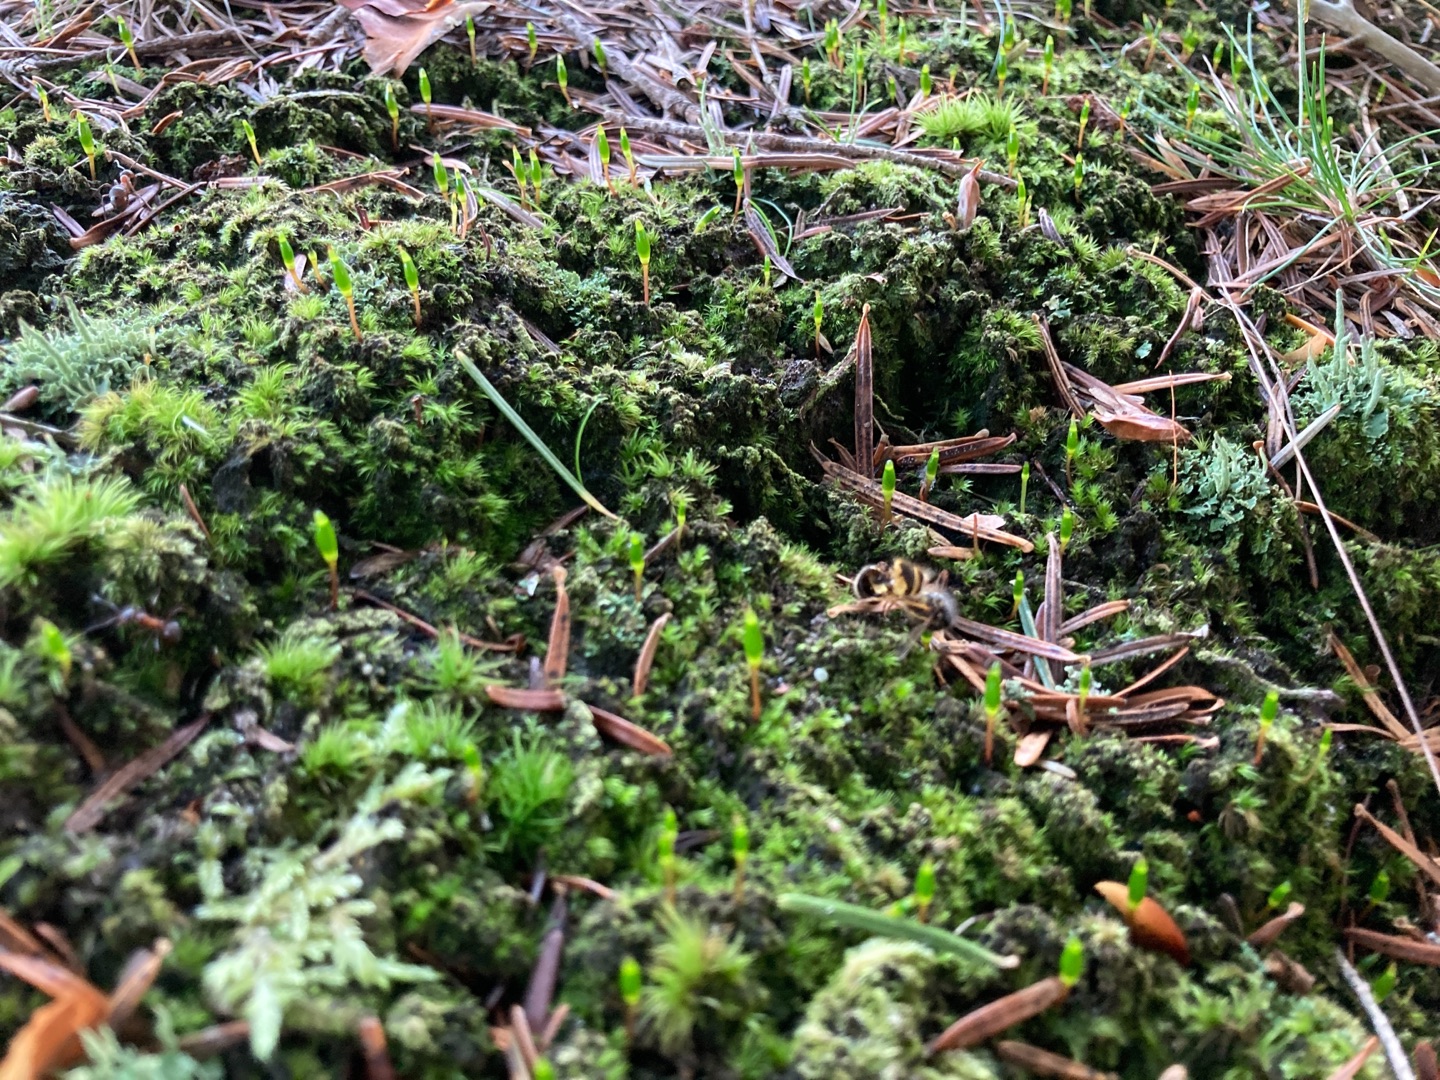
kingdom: Plantae
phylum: Bryophyta
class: Bryopsida
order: Buxbaumiales
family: Buxbaumiaceae
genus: Buxbaumia
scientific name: Buxbaumia viridis
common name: Grøn buxbaumia
